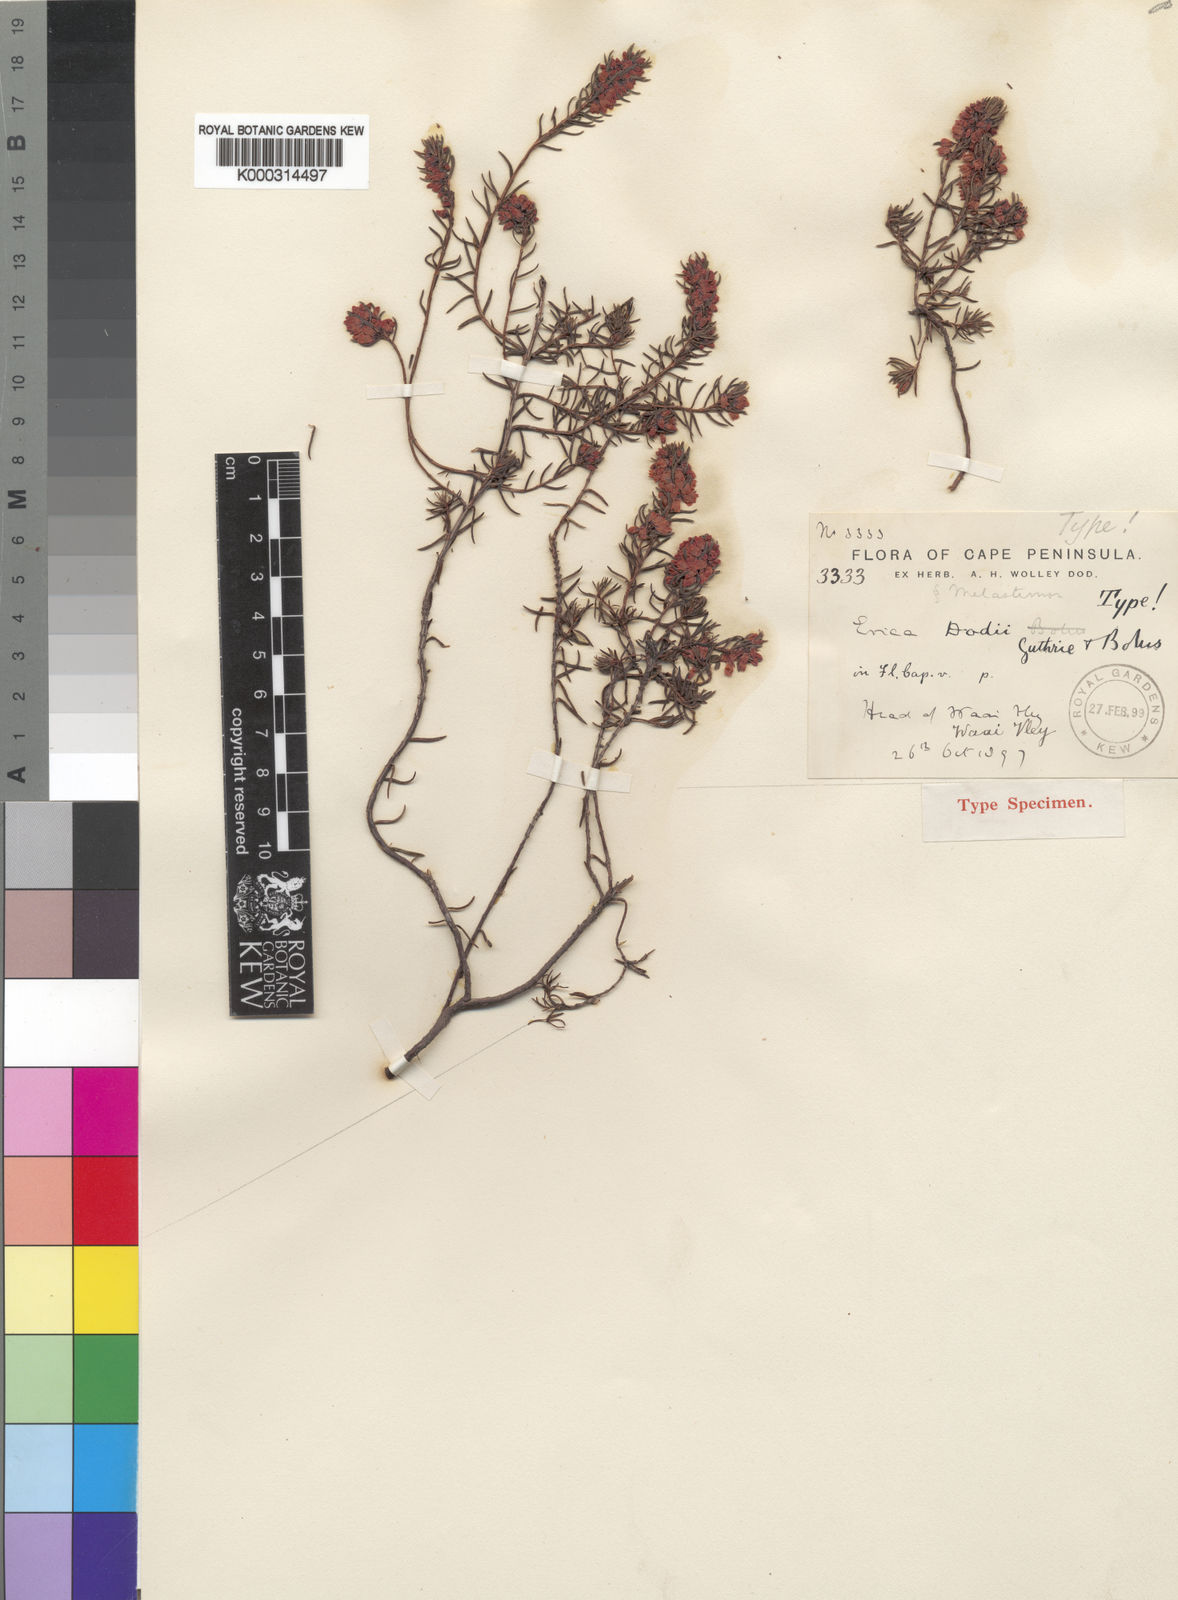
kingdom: Plantae
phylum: Tracheophyta
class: Magnoliopsida
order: Ericales
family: Ericaceae
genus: Erica
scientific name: Erica dodii
